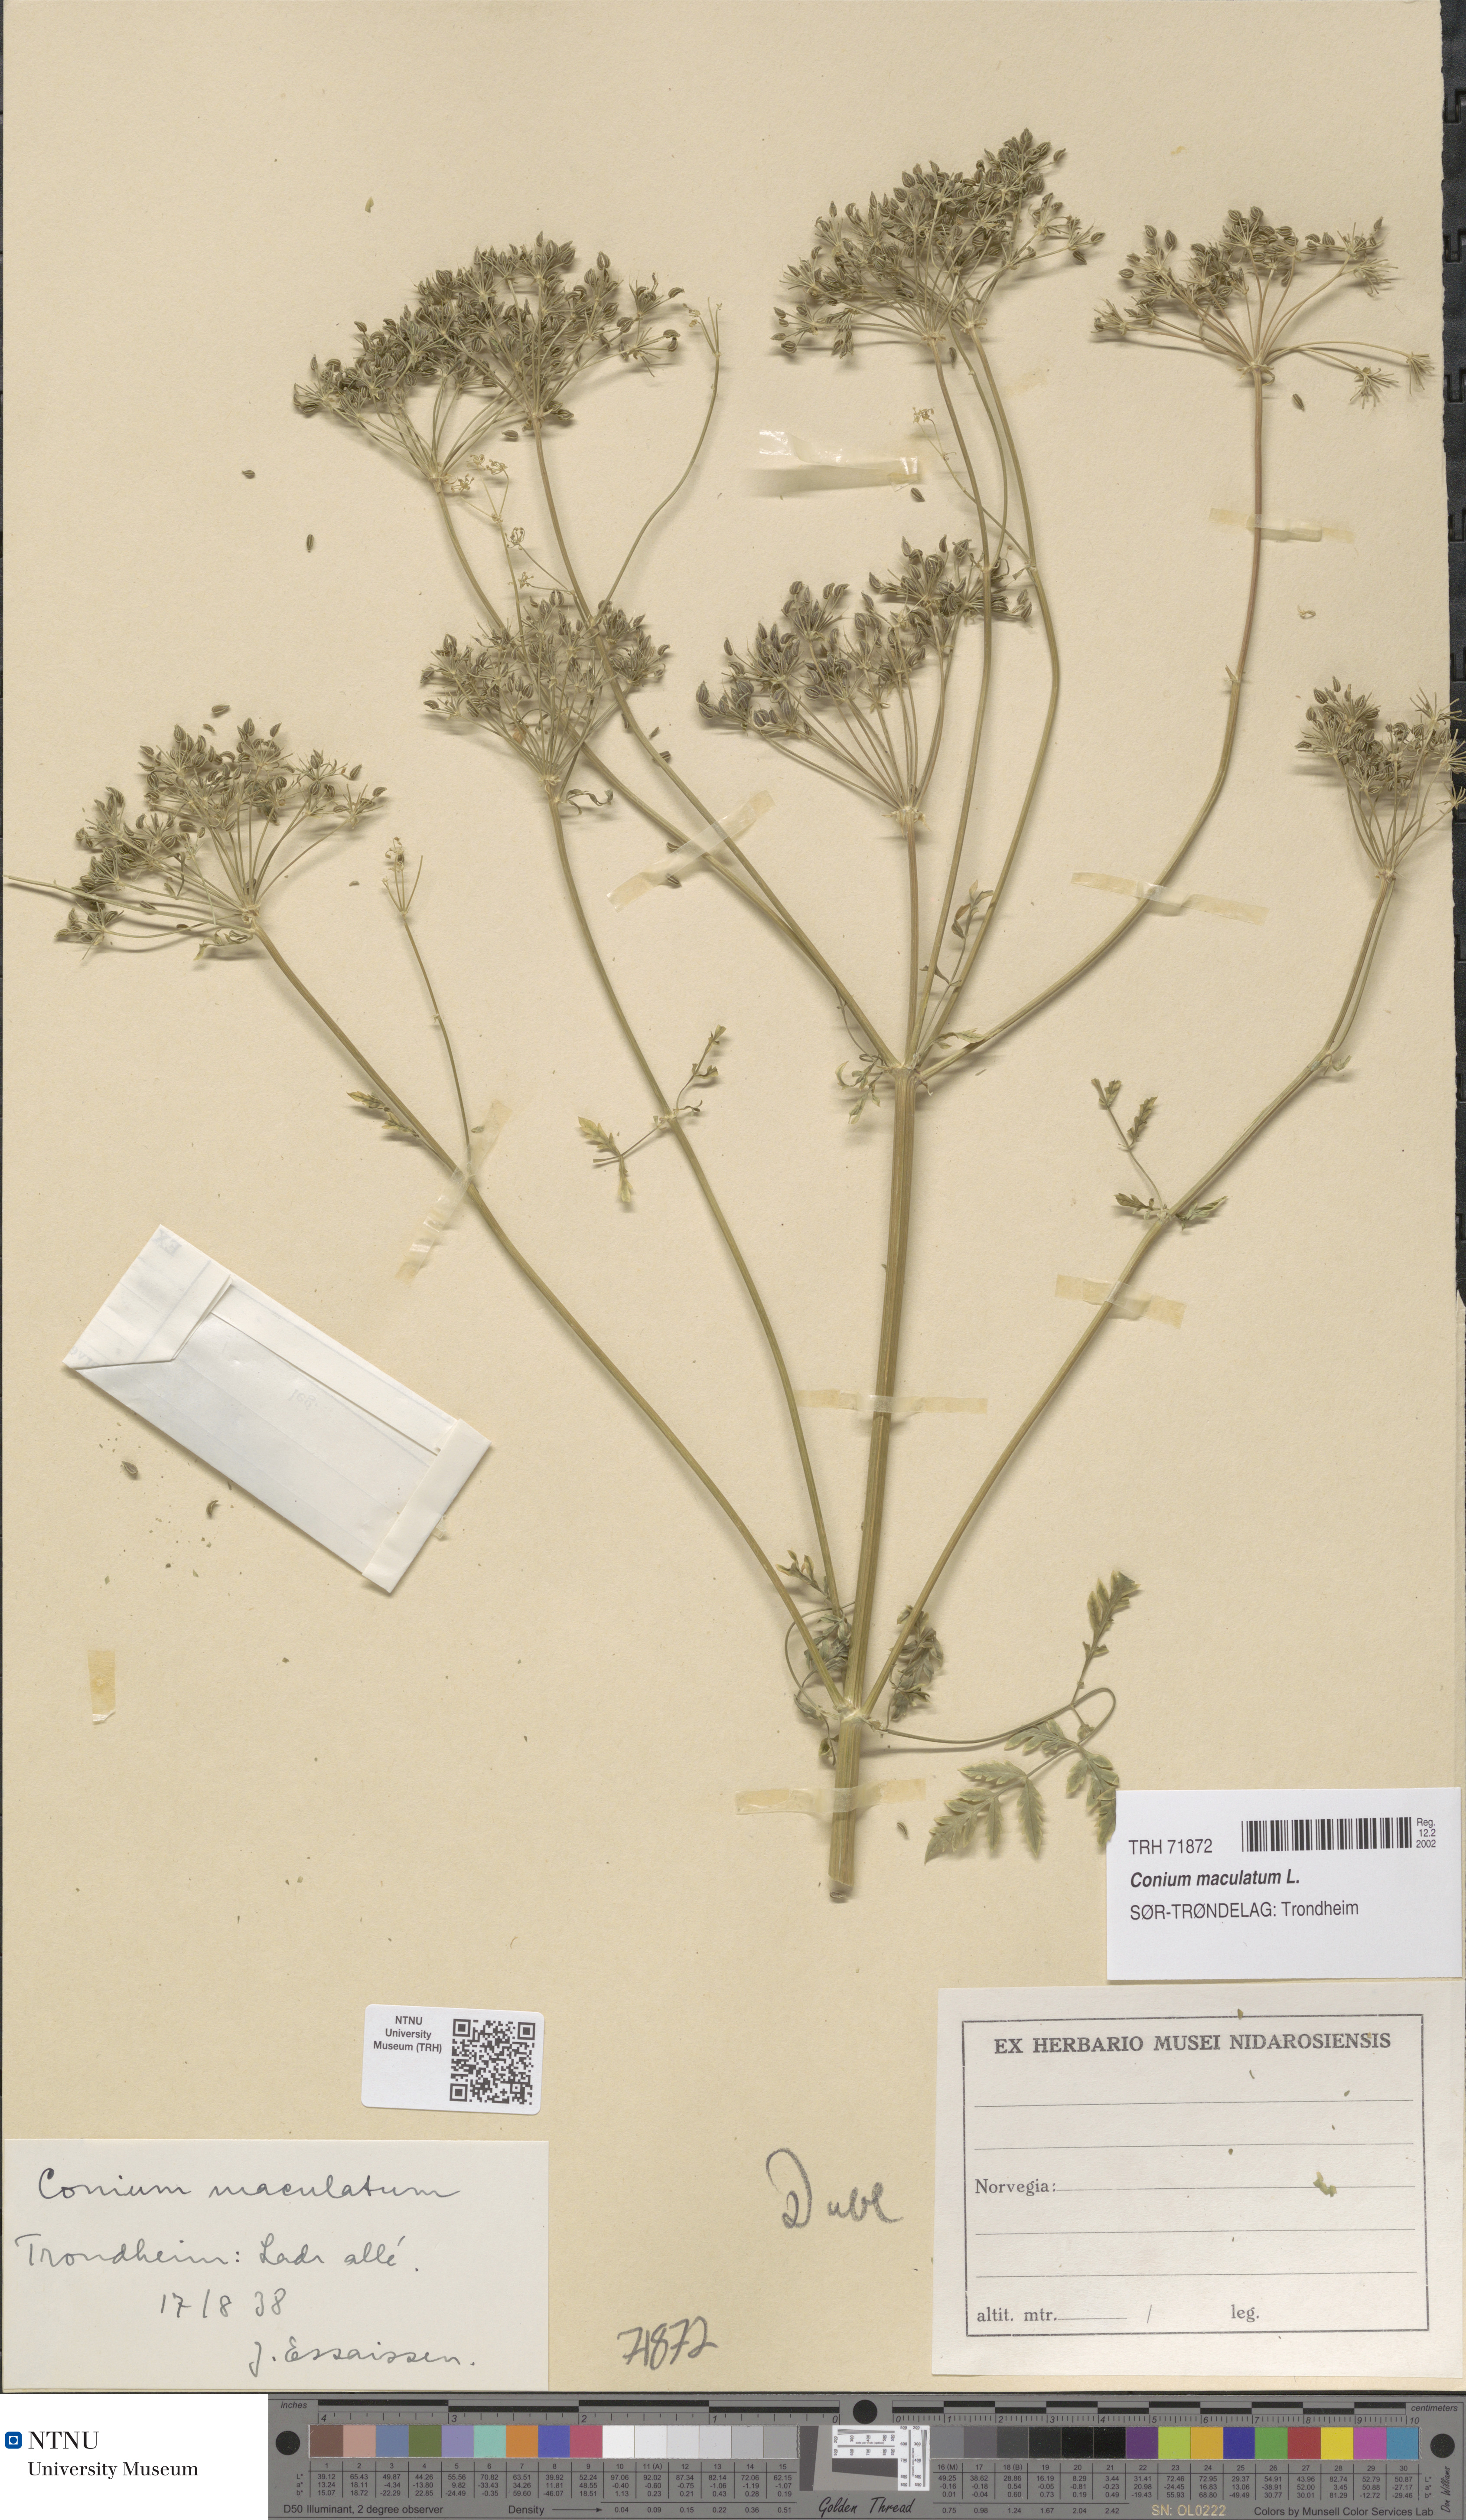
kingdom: Plantae
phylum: Tracheophyta
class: Magnoliopsida
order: Apiales
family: Apiaceae
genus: Conium
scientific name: Conium maculatum
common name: Hemlock
